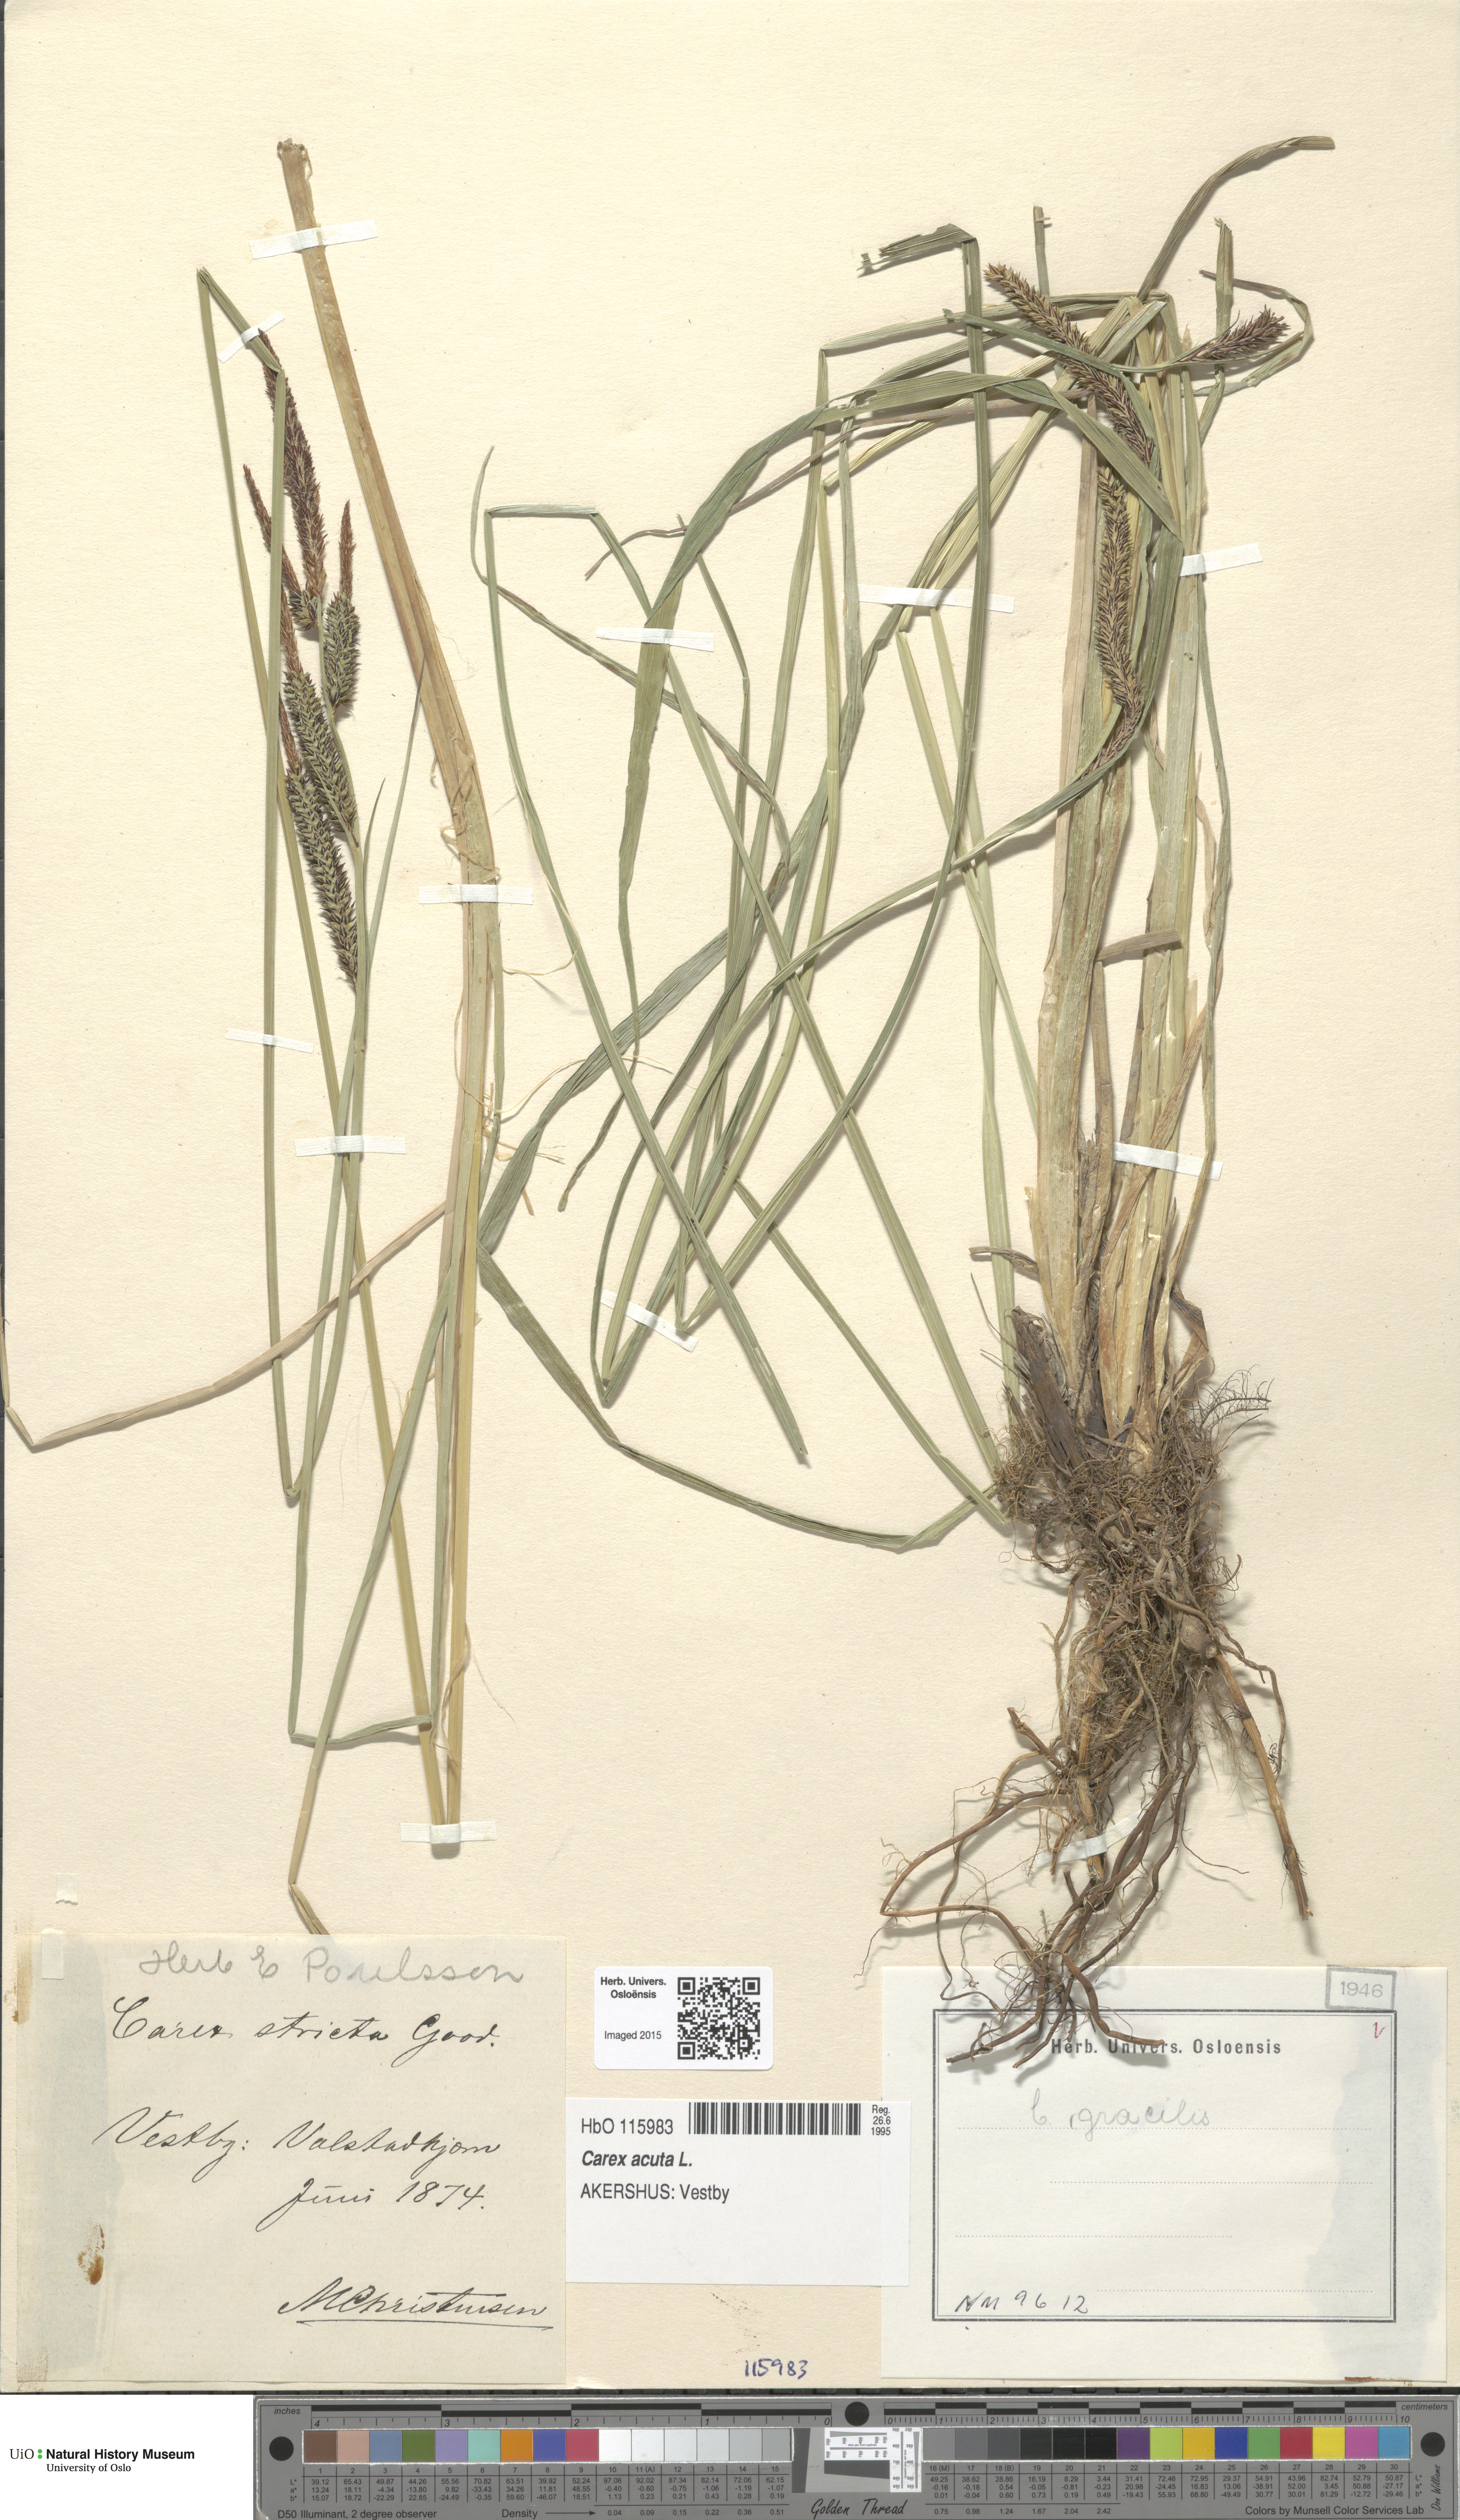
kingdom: Plantae
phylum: Tracheophyta
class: Liliopsida
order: Poales
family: Cyperaceae
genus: Carex
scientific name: Carex acuta
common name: Slender tufted-sedge
